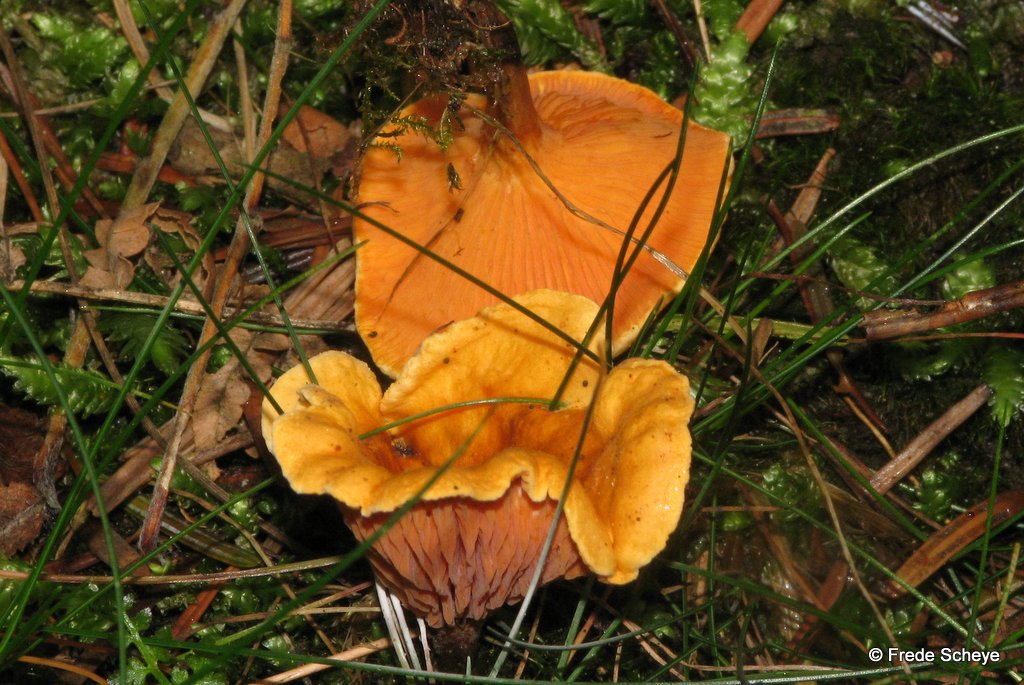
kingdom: Fungi
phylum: Basidiomycota
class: Agaricomycetes
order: Boletales
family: Hygrophoropsidaceae
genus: Hygrophoropsis
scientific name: Hygrophoropsis aurantiaca
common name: almindelig orangekantarel
